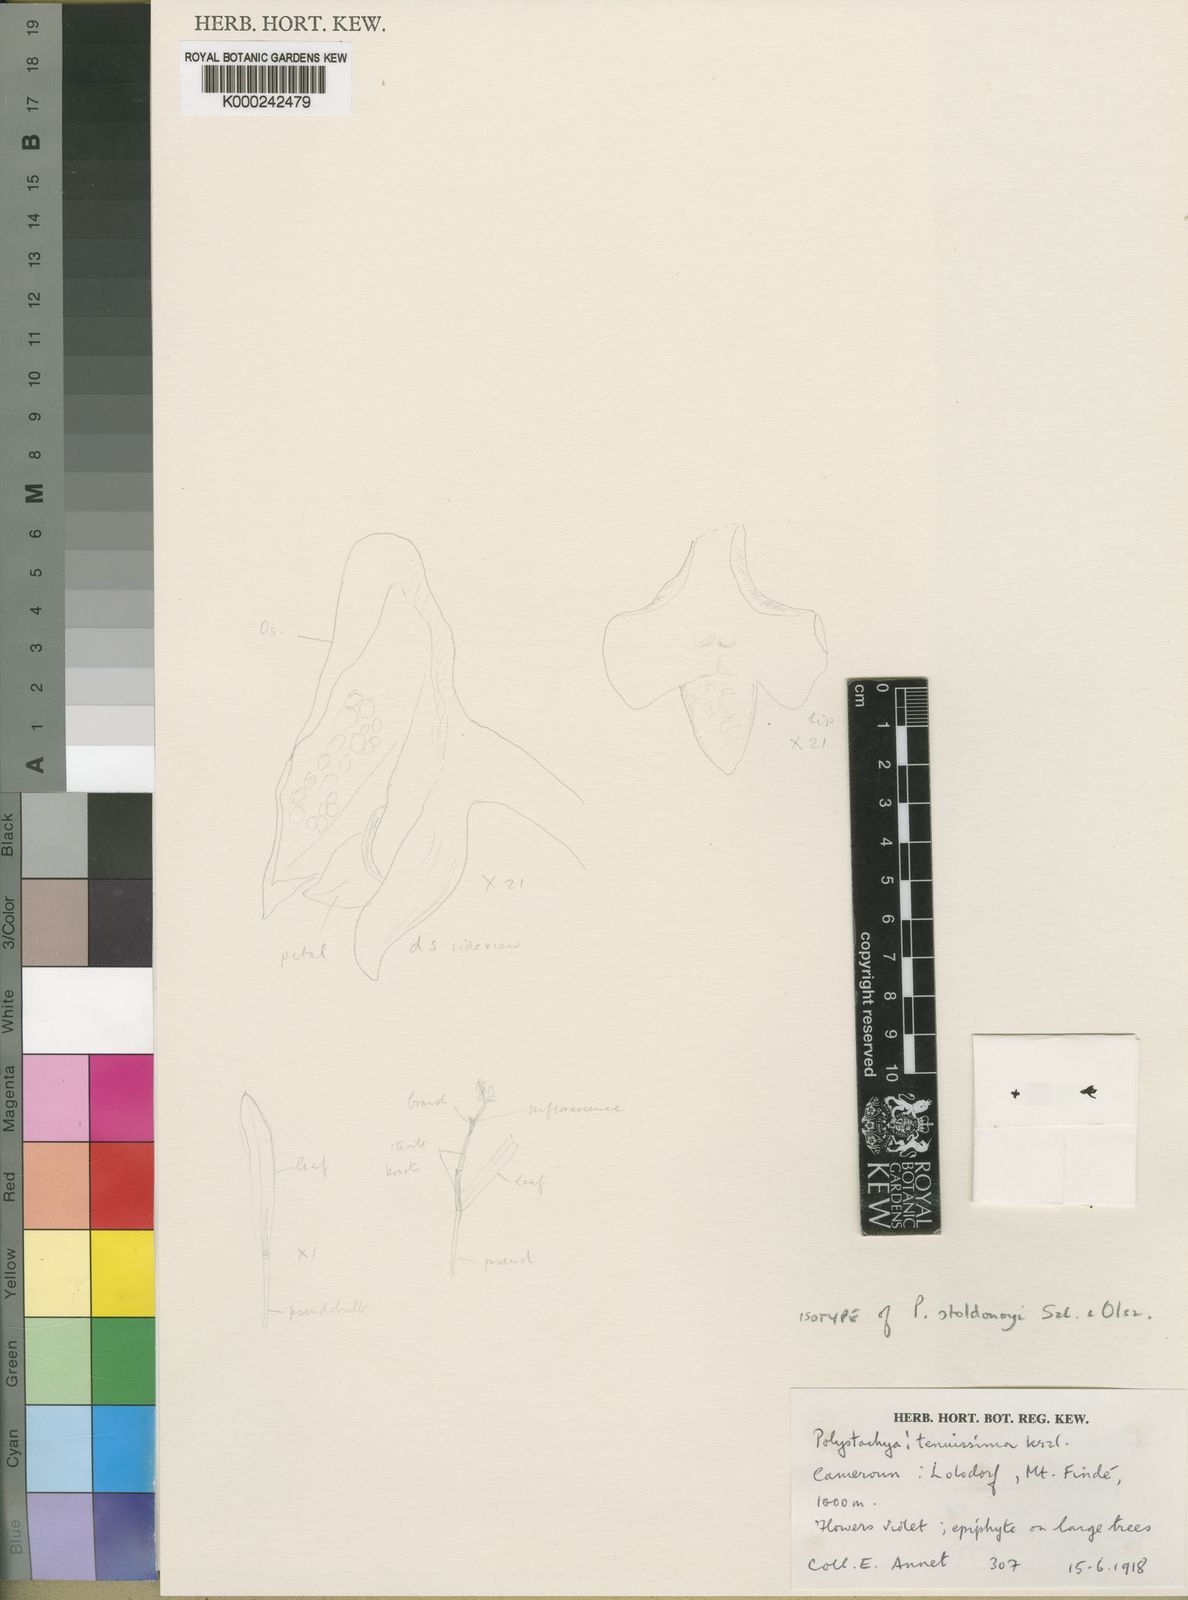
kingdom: Plantae
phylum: Tracheophyta
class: Liliopsida
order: Asparagales
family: Orchidaceae
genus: Polystachya
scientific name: Polystachya stodolnyi
